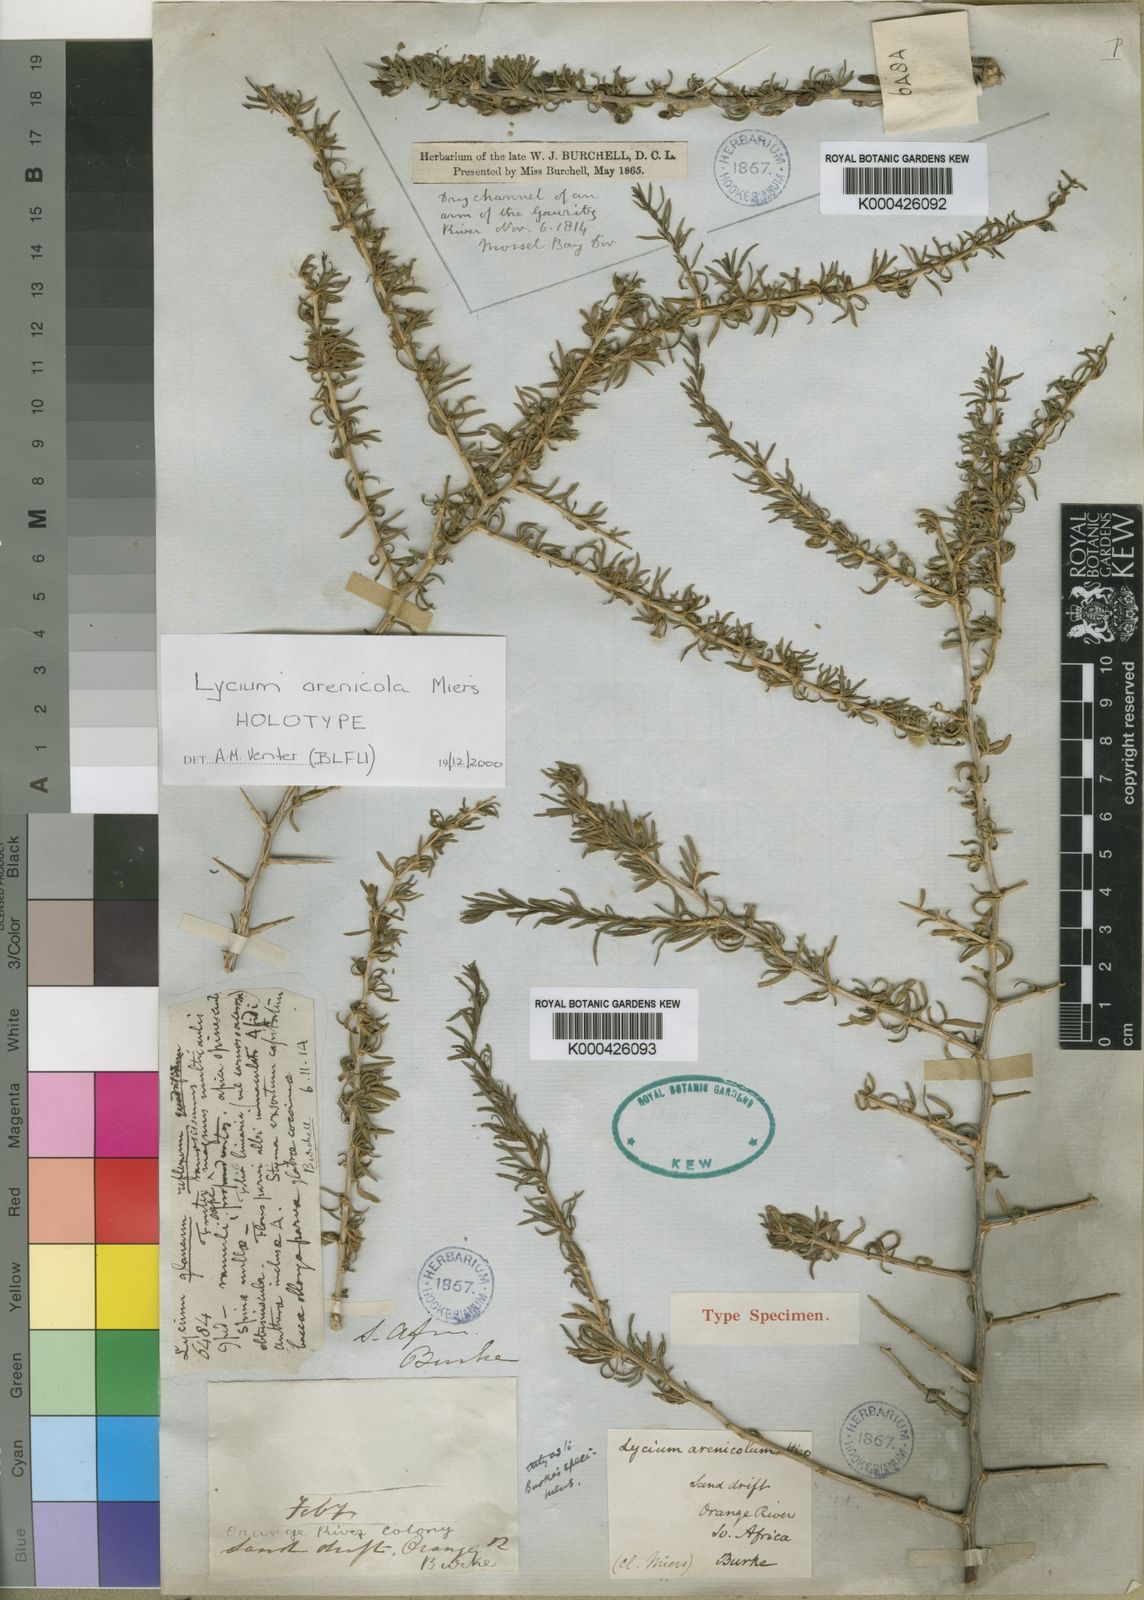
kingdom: Plantae
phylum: Tracheophyta
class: Magnoliopsida
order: Solanales
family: Solanaceae
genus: Lycium
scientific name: Lycium arenicola
